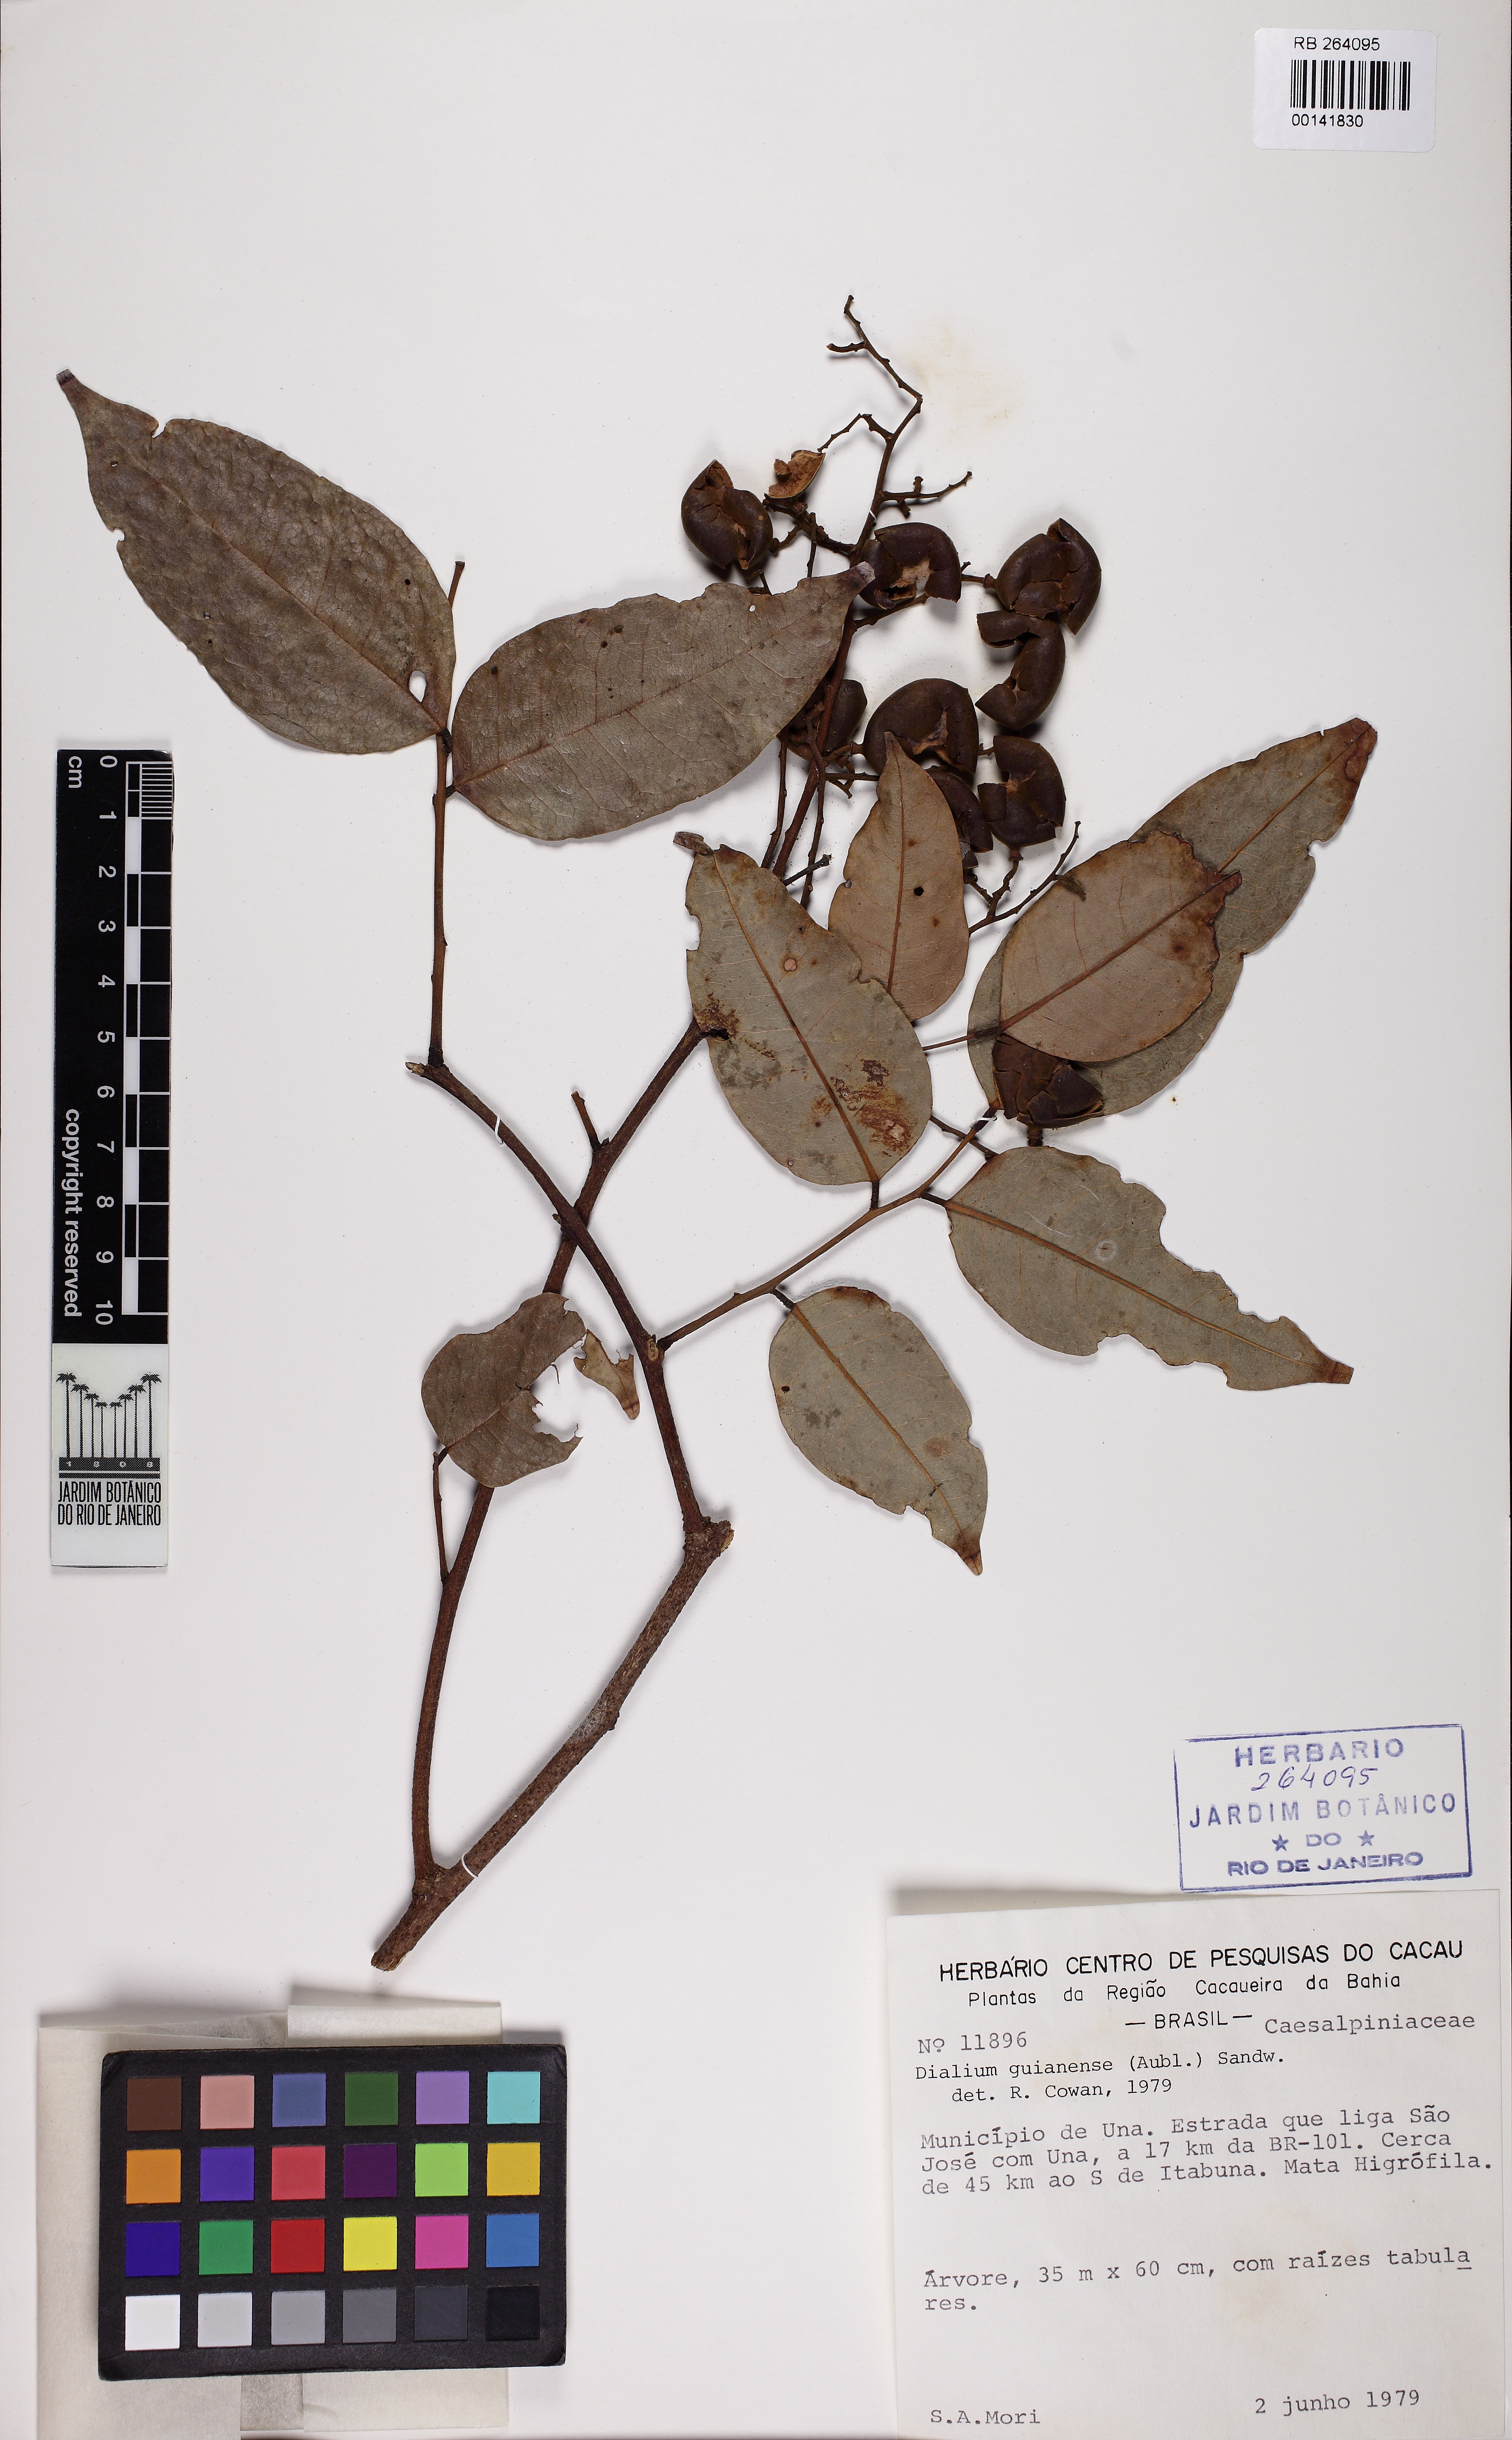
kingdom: Plantae
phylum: Tracheophyta
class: Magnoliopsida
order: Fabales
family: Fabaceae
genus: Dialium
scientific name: Dialium guianense
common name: Ironwood
